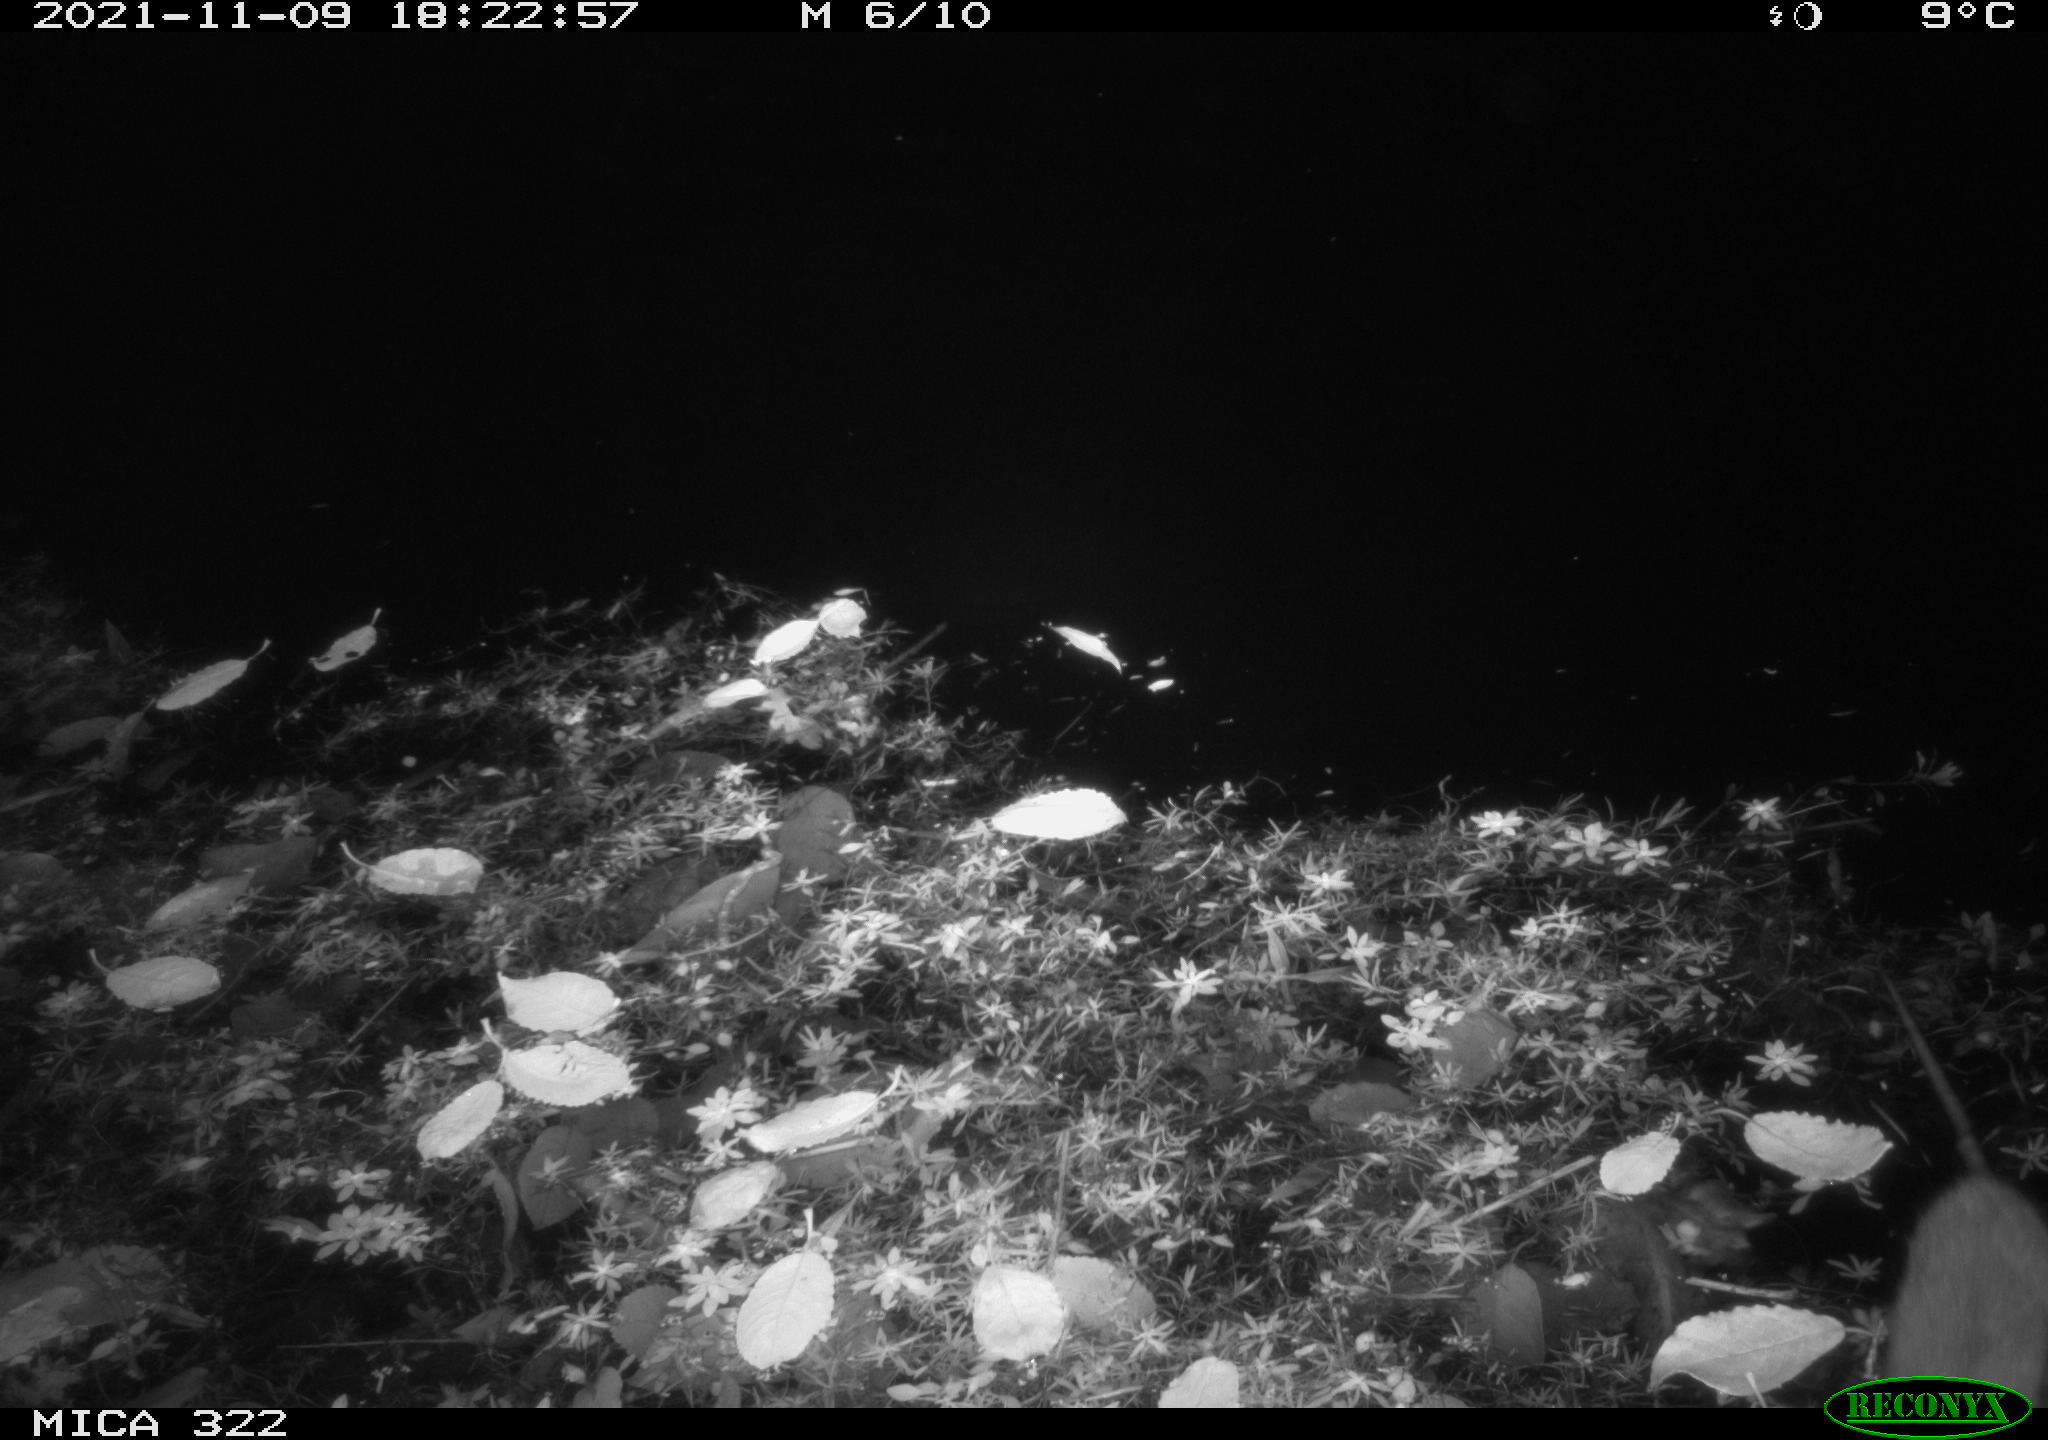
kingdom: Animalia
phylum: Chordata
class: Mammalia
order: Rodentia
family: Muridae
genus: Rattus
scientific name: Rattus norvegicus
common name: Brown rat
